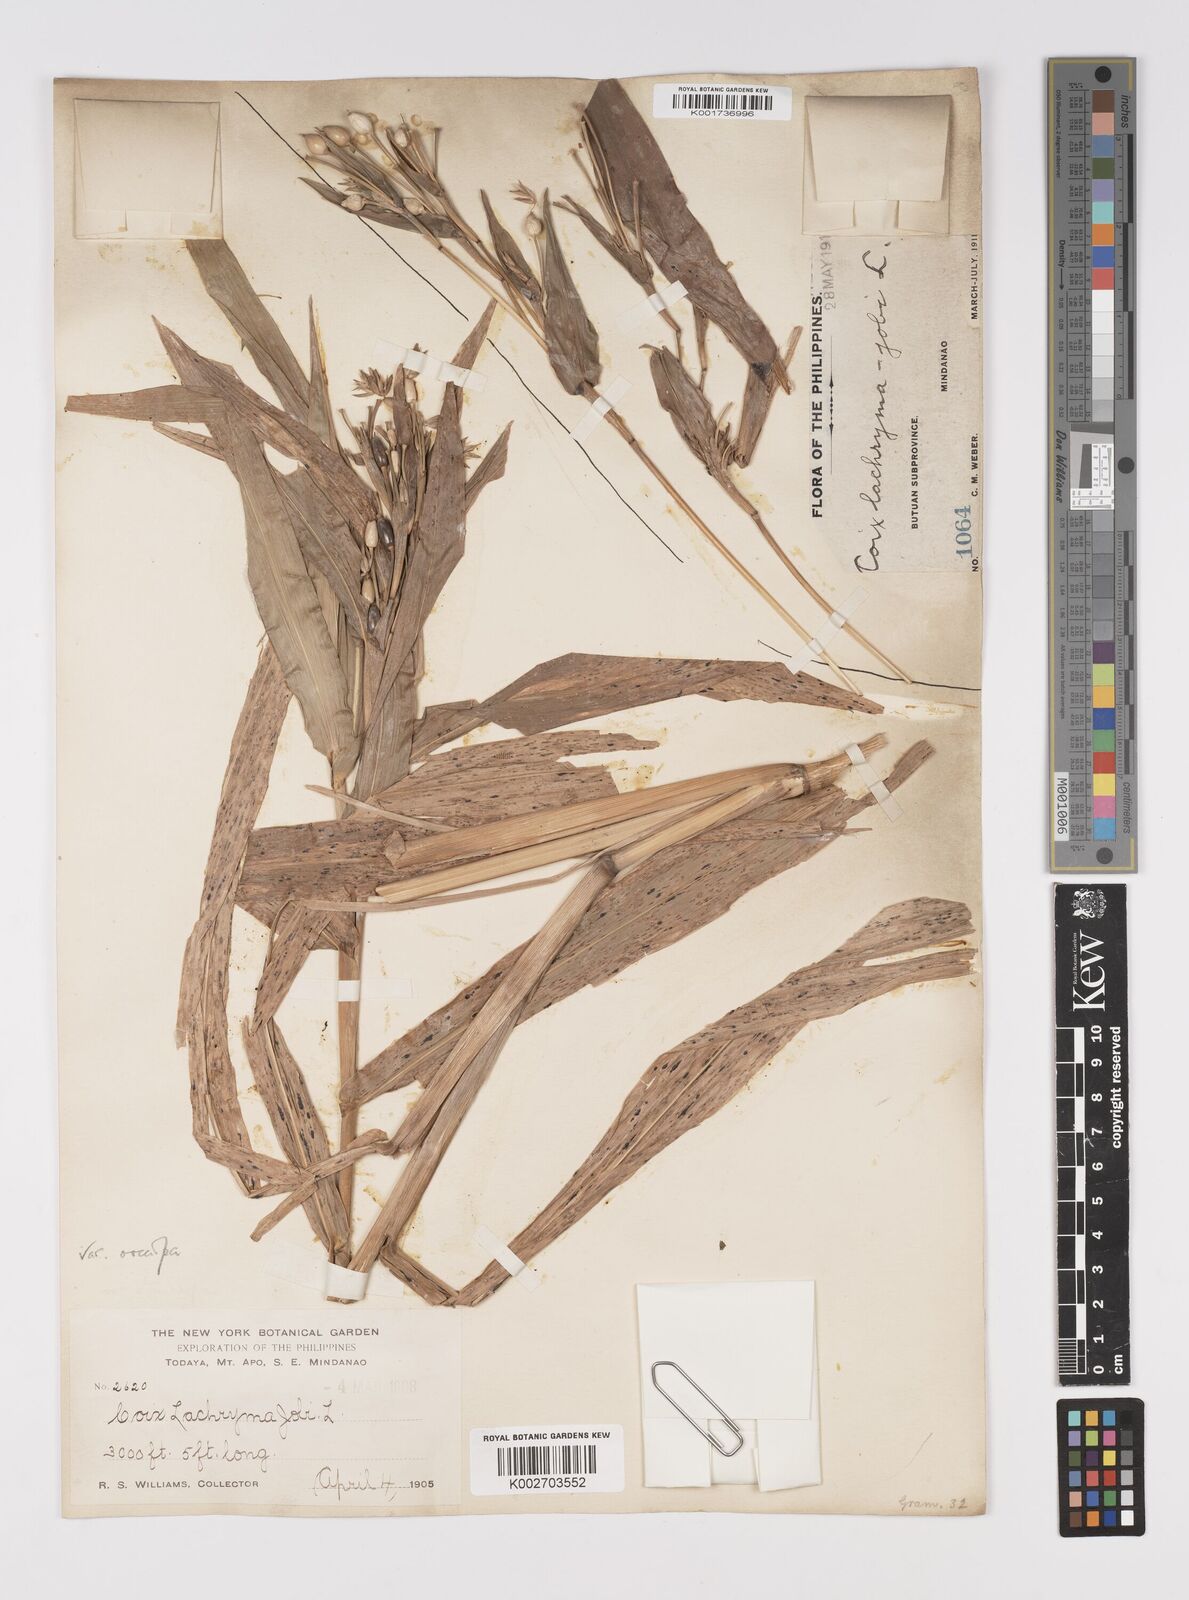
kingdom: Plantae
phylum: Tracheophyta
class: Liliopsida
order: Poales
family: Poaceae
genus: Coix
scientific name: Coix lacryma-jobi
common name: Job's tears
